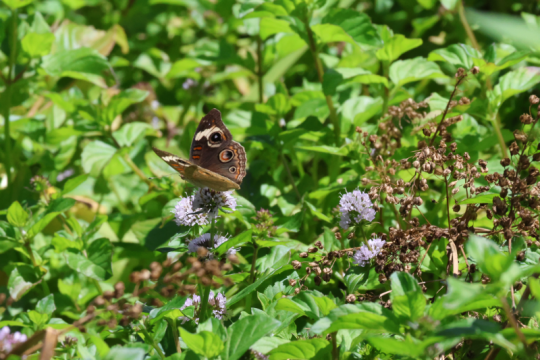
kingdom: Animalia
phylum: Arthropoda
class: Insecta
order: Lepidoptera
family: Nymphalidae
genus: Junonia
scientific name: Junonia coenia
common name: Common Buckeye
